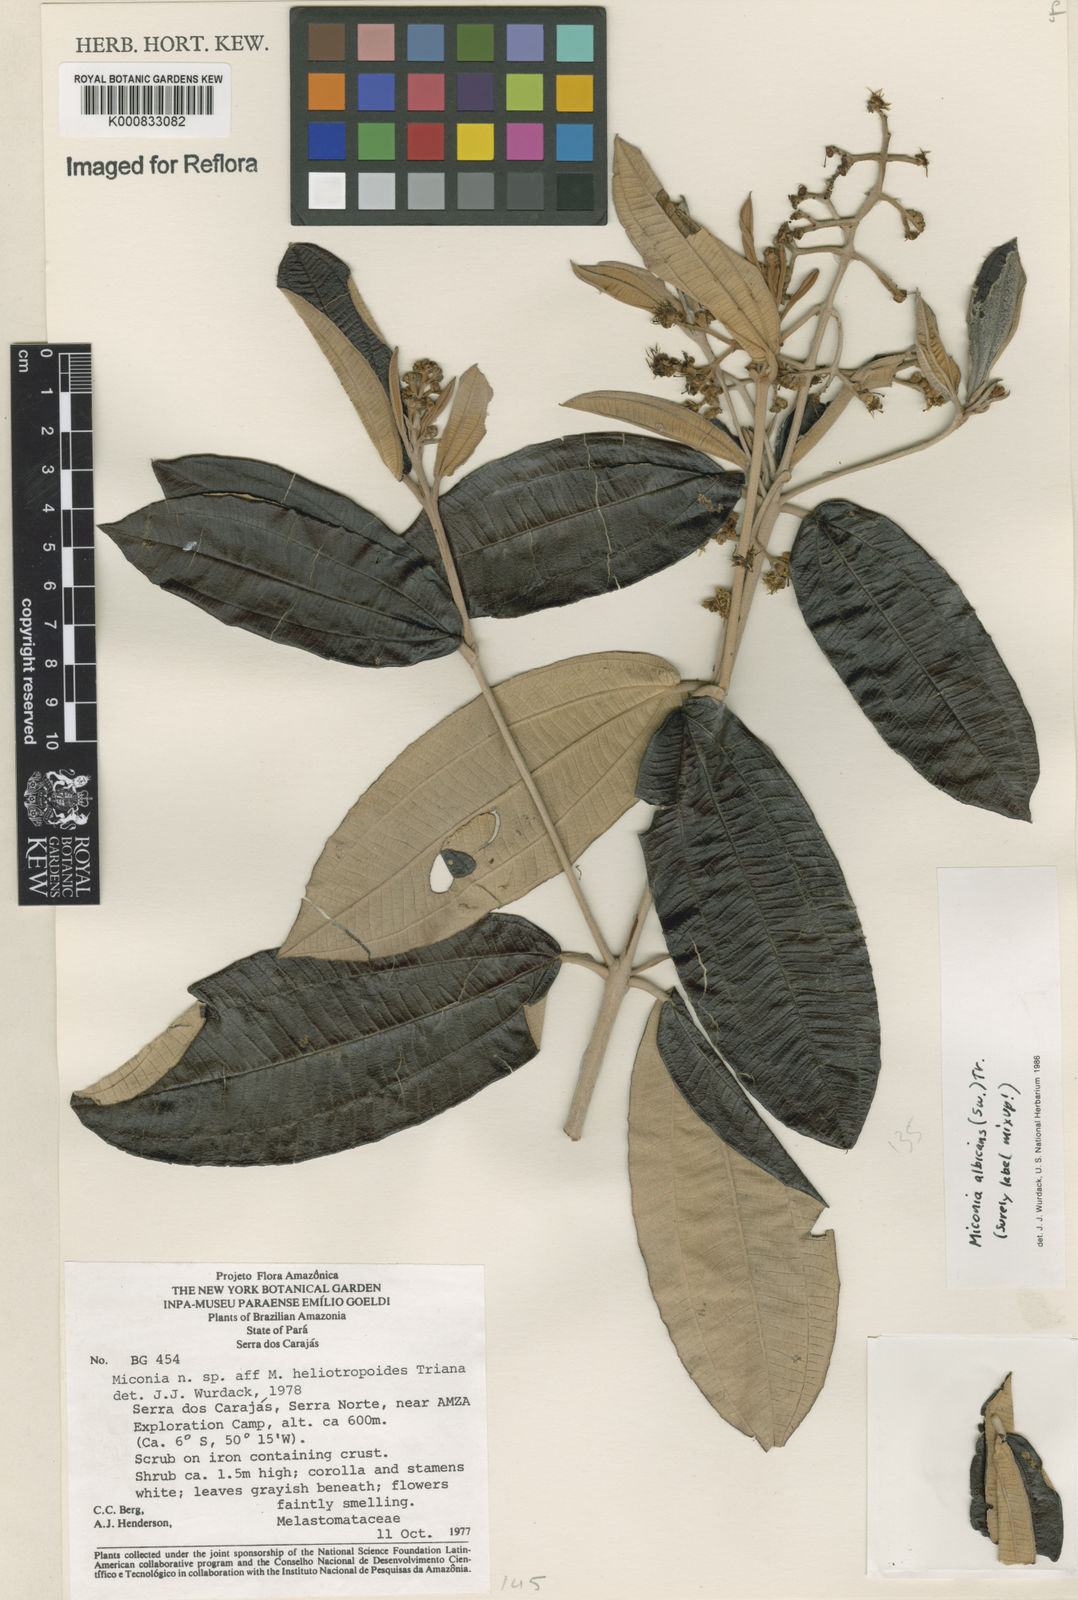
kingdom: Plantae
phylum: Tracheophyta
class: Magnoliopsida
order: Myrtales
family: Melastomataceae
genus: Miconia
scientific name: Miconia albicans
